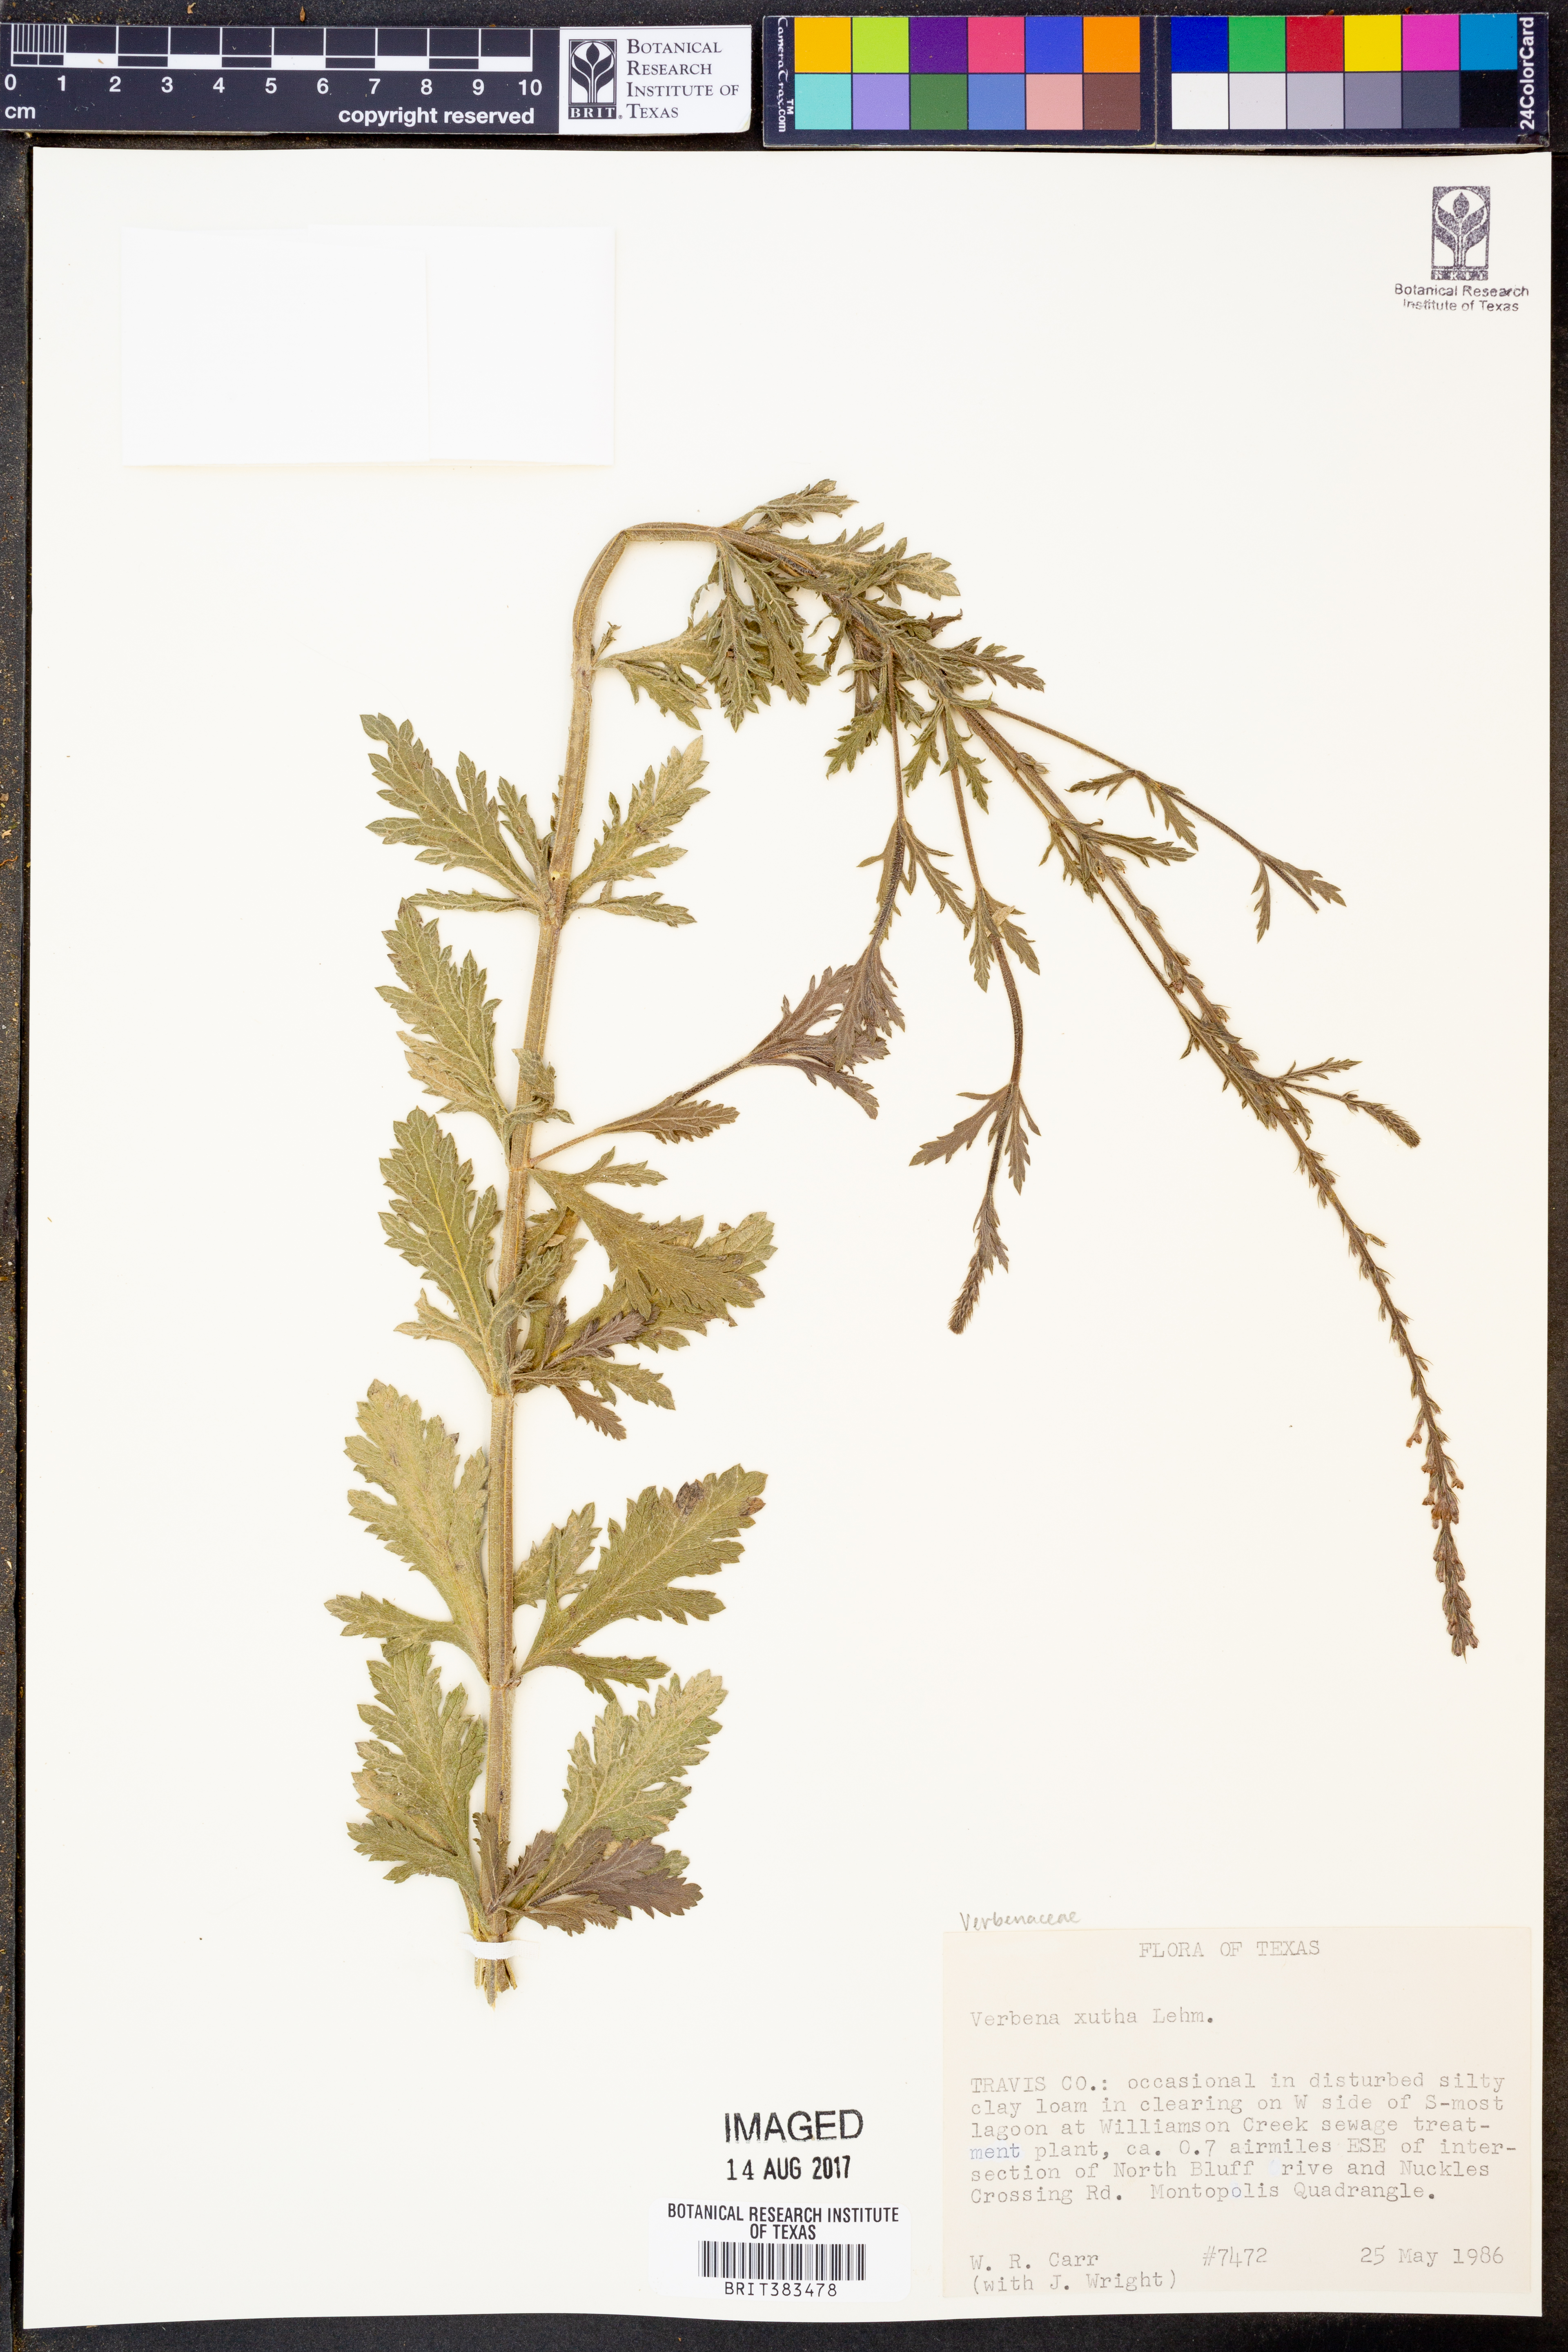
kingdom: Plantae
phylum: Tracheophyta
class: Magnoliopsida
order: Lamiales
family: Verbenaceae
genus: Verbena
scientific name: Verbena xutha
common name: Gulf vervain
